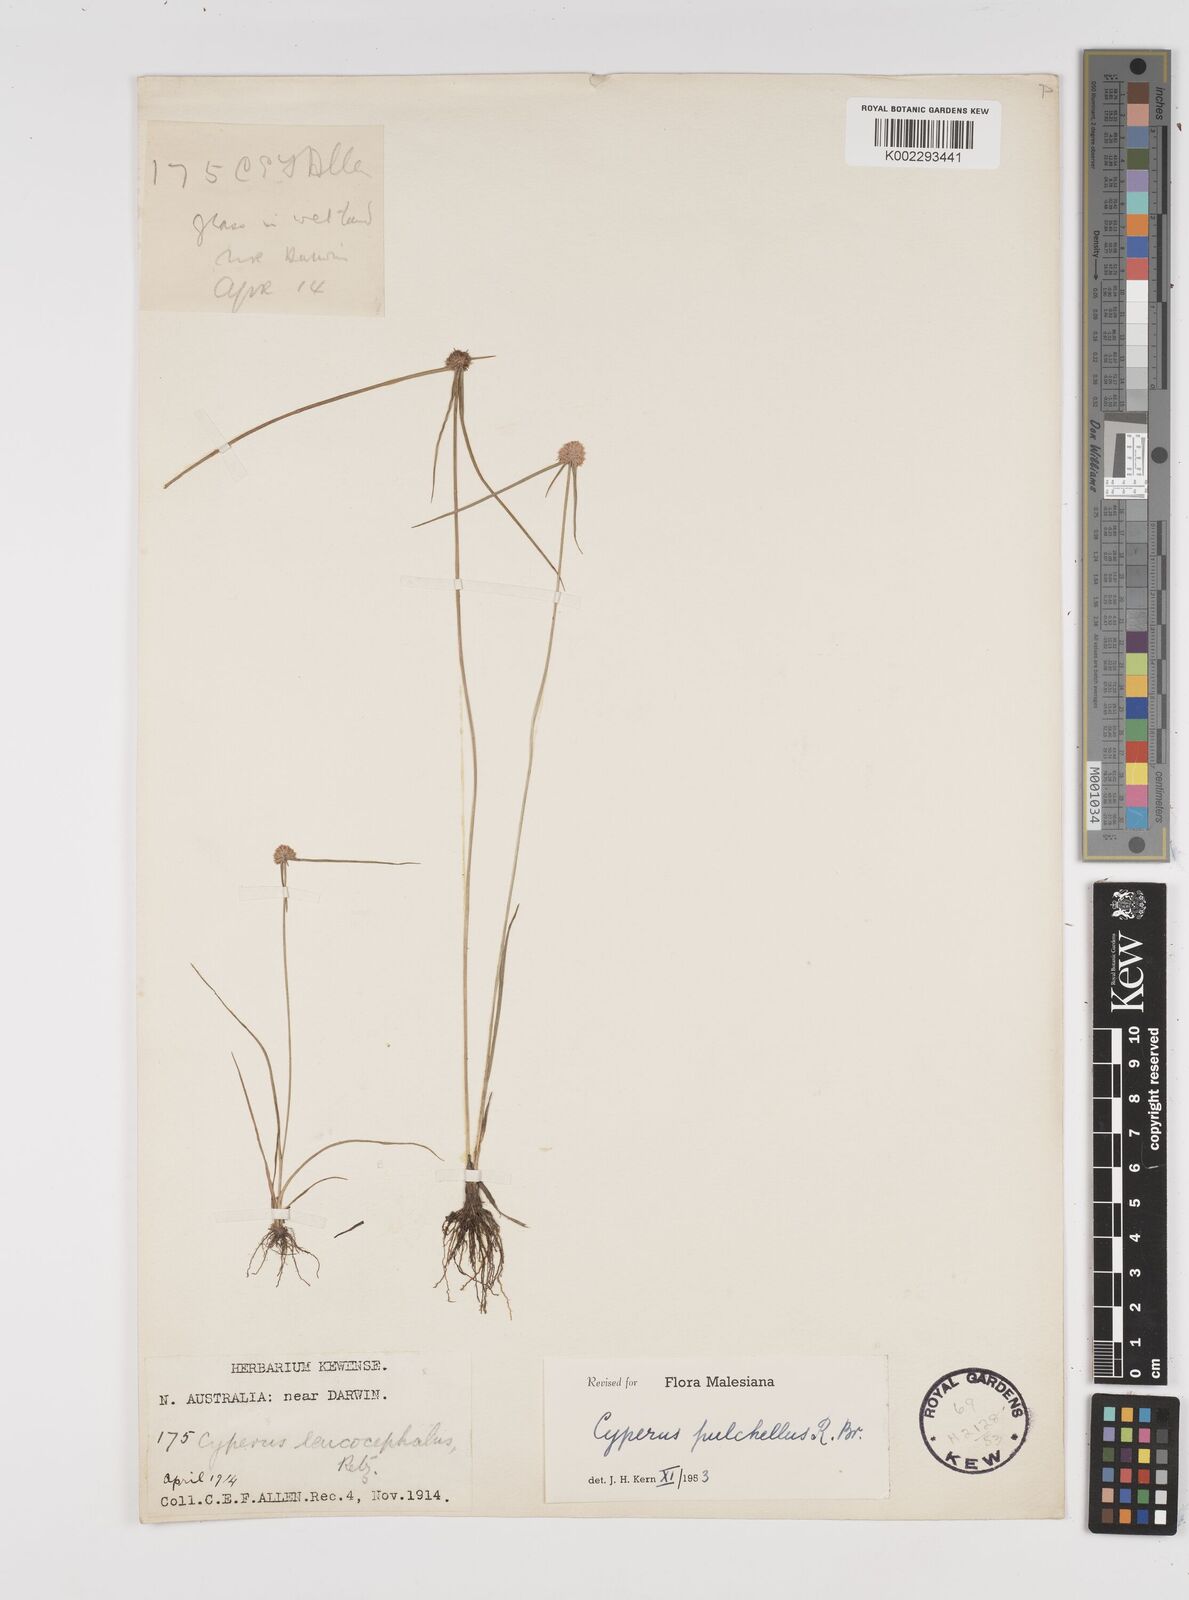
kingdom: Plantae
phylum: Tracheophyta
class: Liliopsida
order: Poales
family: Cyperaceae
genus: Cyperus
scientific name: Cyperus pulchellus
